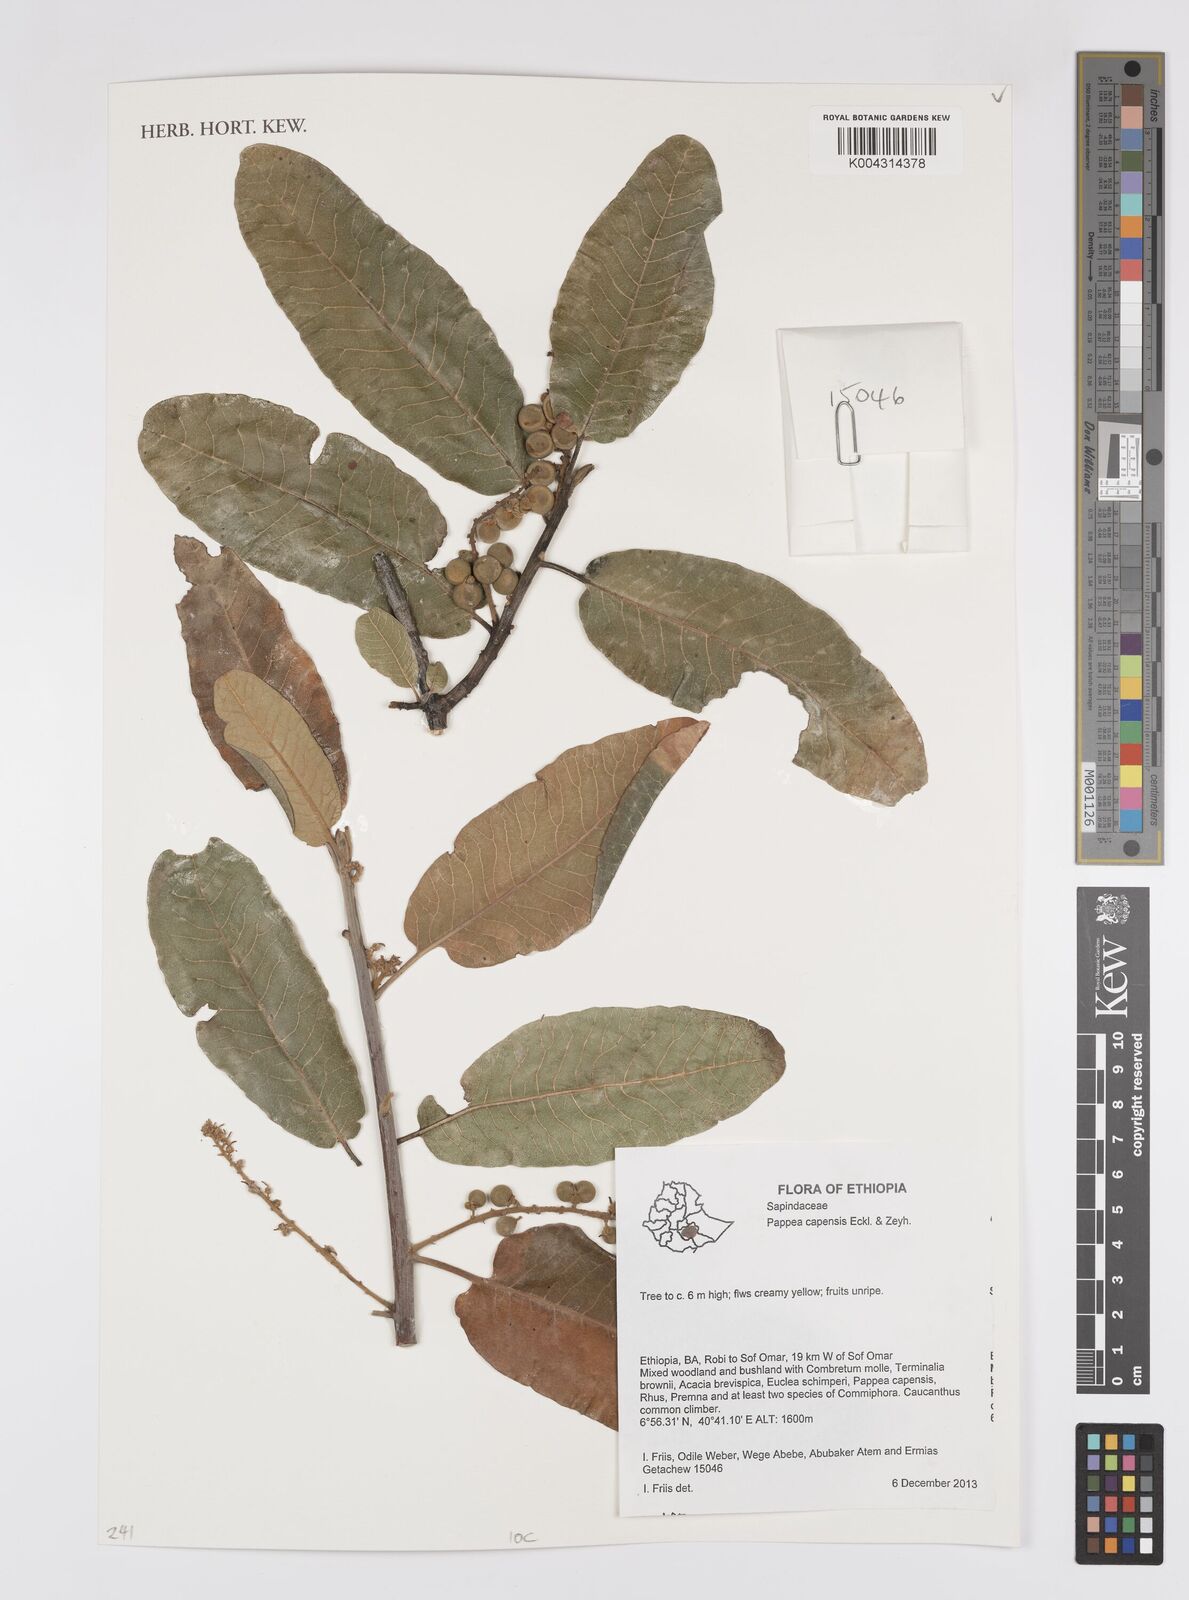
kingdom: Plantae
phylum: Tracheophyta
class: Magnoliopsida
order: Sapindales
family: Sapindaceae
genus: Pappea
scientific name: Pappea capensis
